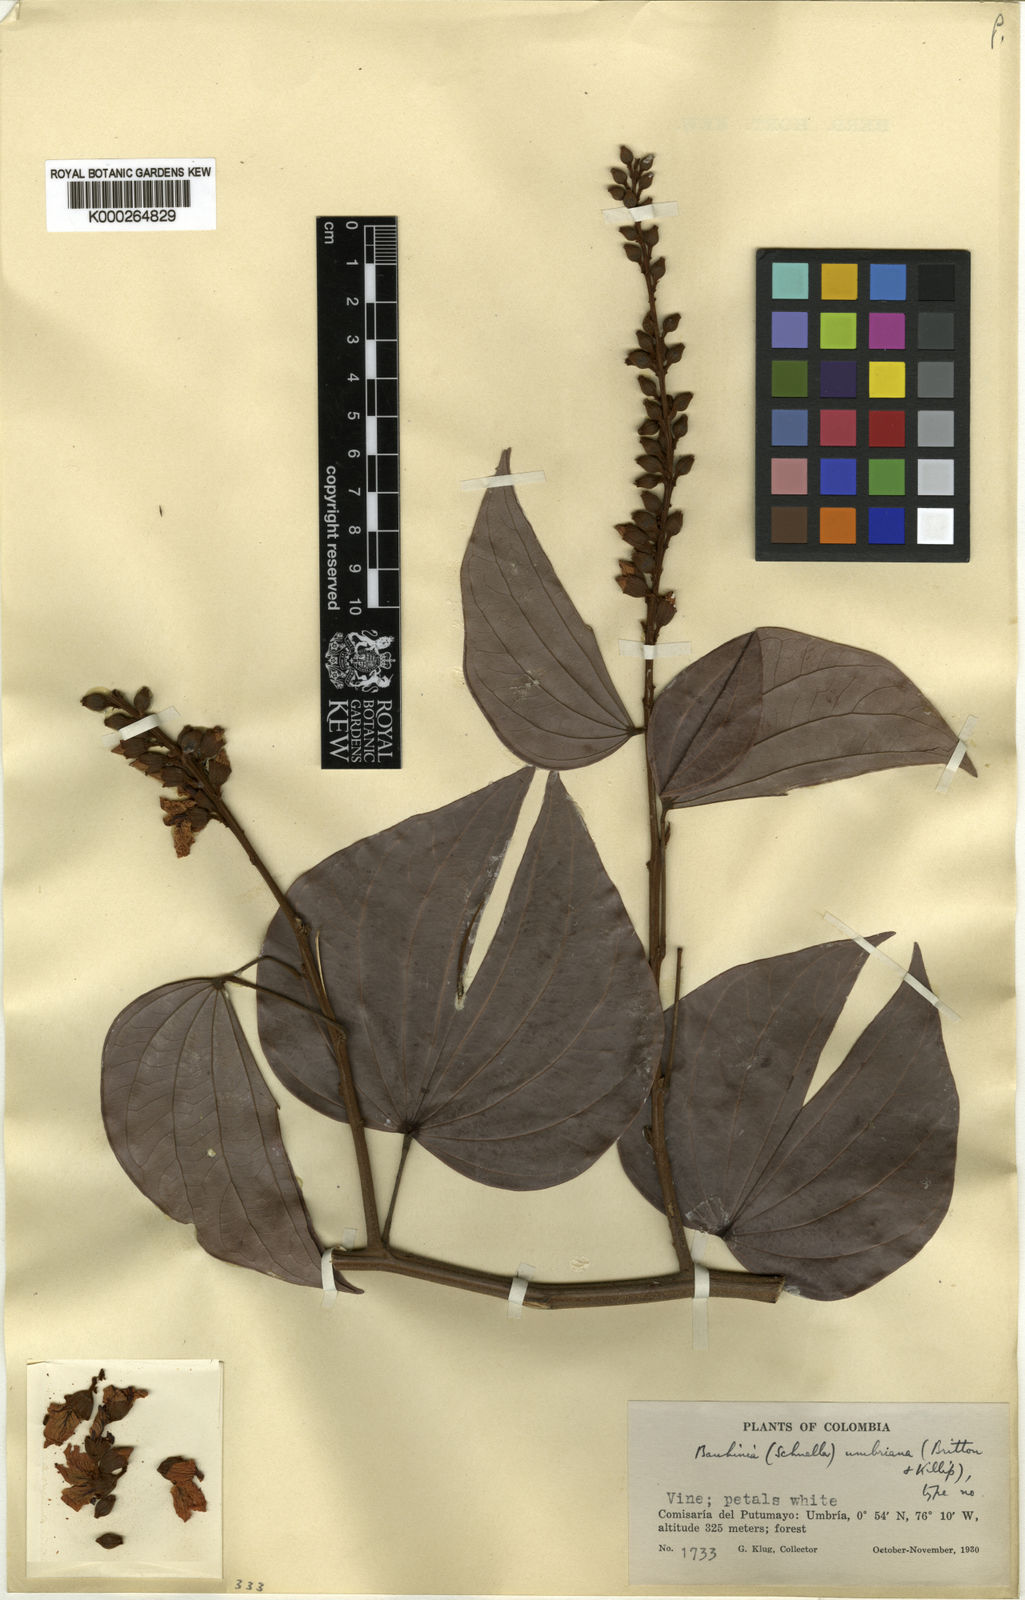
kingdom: Plantae
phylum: Tracheophyta
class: Magnoliopsida
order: Fabales
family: Fabaceae
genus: Bauhinia
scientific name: Bauhinia
